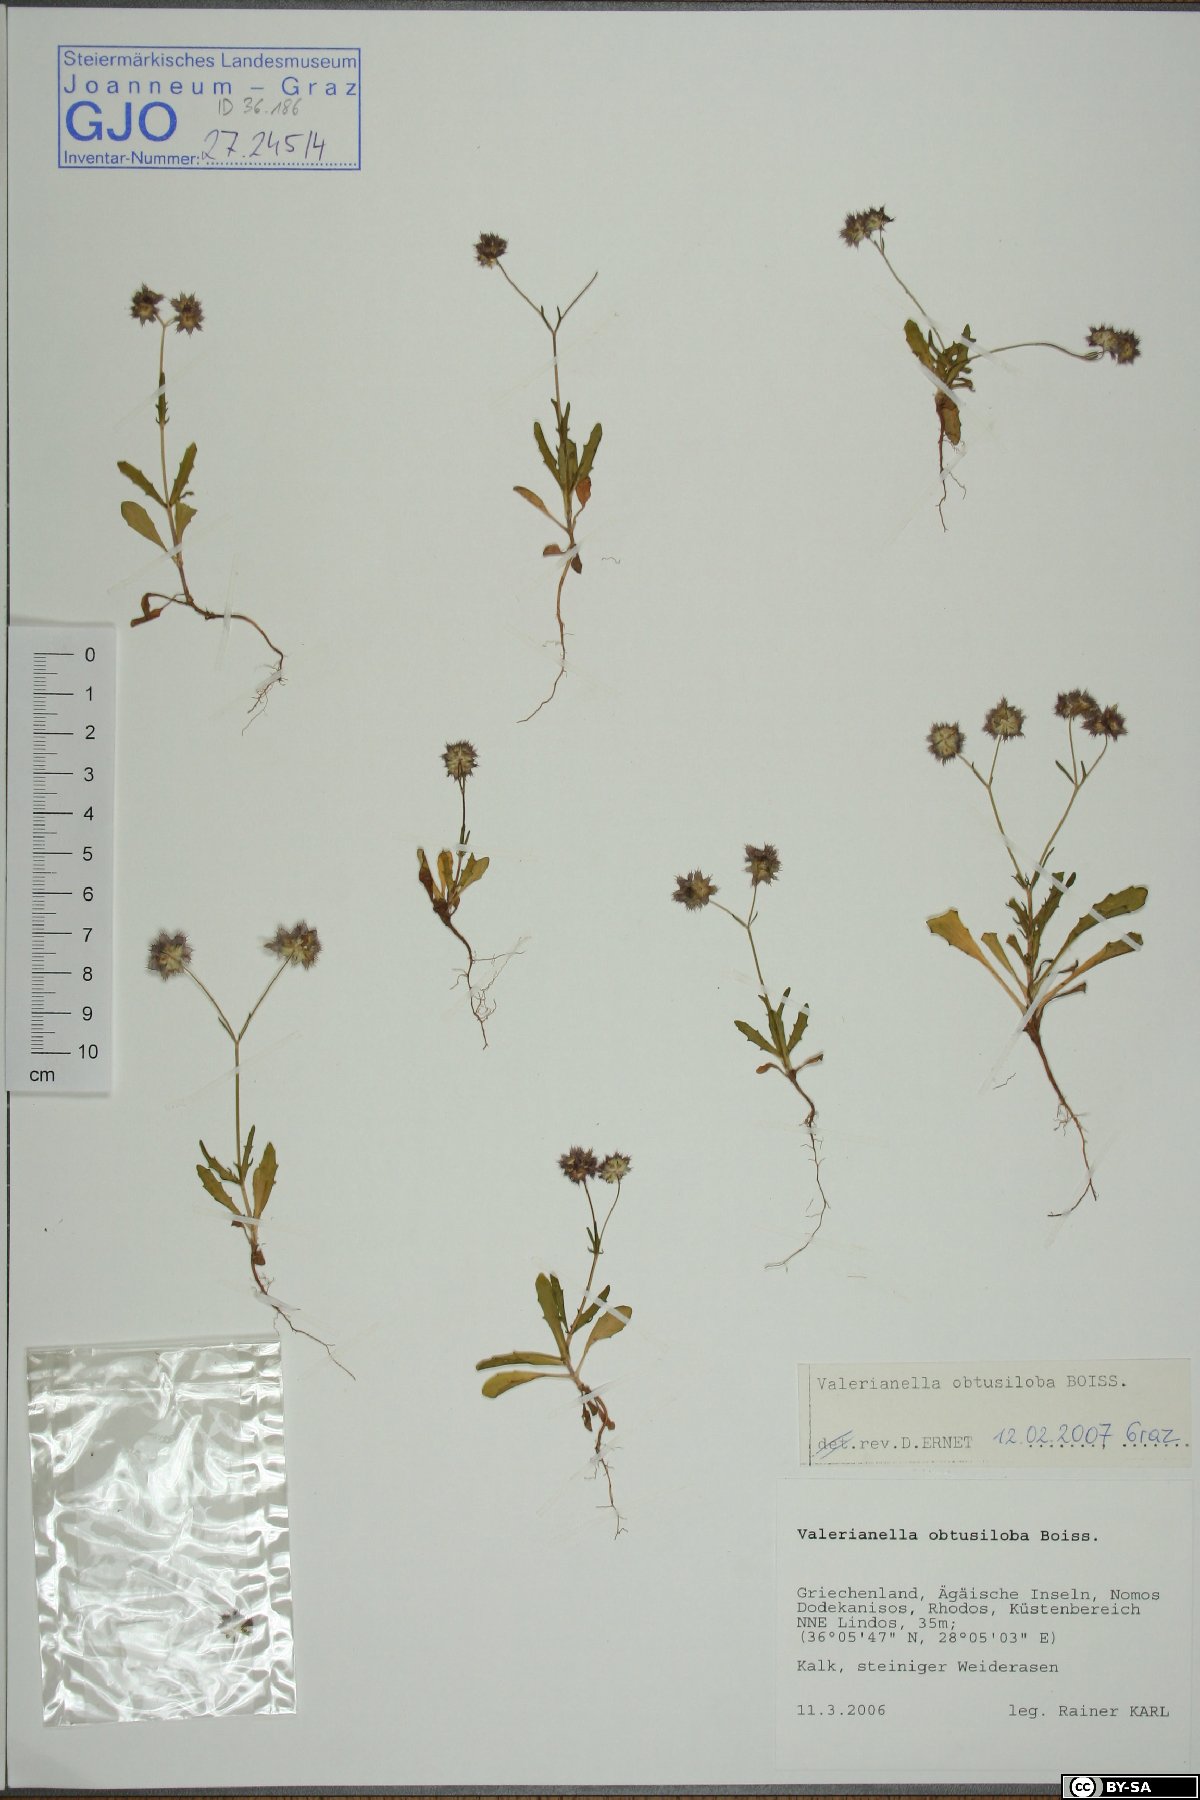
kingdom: Plantae
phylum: Tracheophyta
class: Magnoliopsida
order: Dipsacales
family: Caprifoliaceae
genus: Valerianella
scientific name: Valerianella obtusiloba
